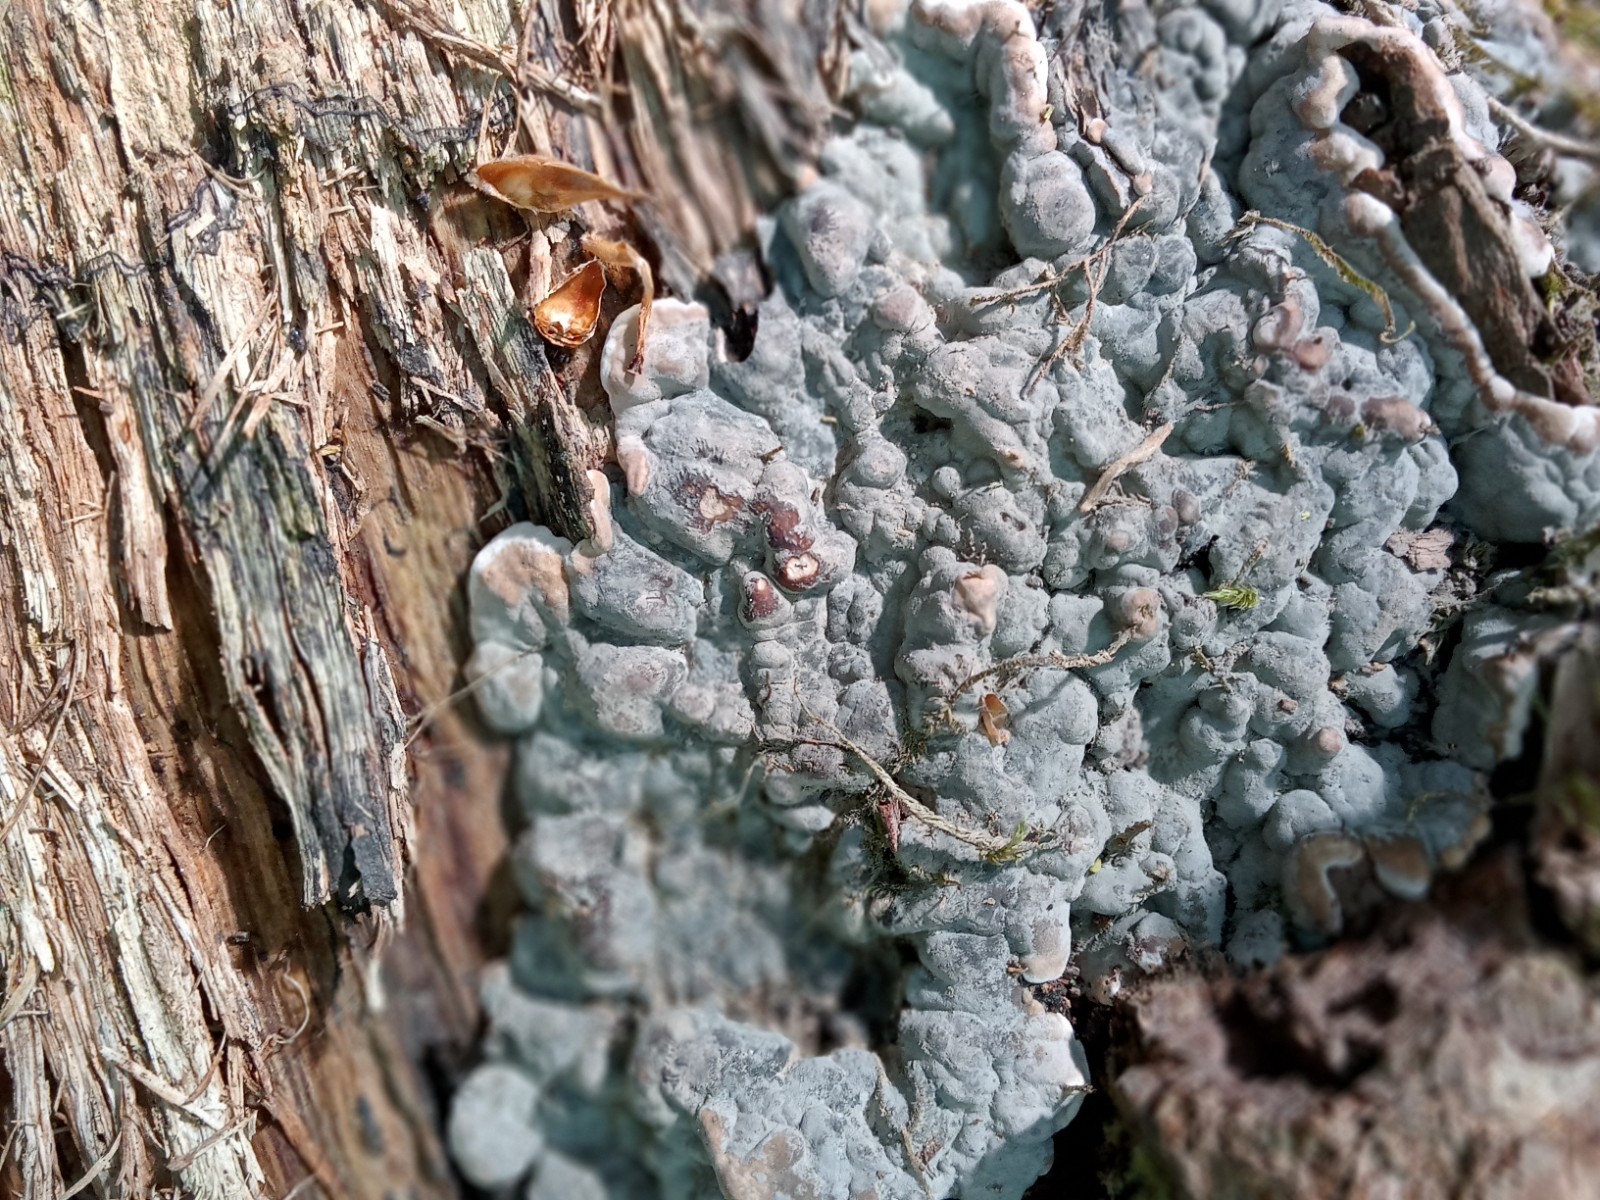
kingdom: Fungi
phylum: Ascomycota
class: Sordariomycetes
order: Xylariales
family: Xylariaceae
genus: Kretzschmaria
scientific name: Kretzschmaria deusta
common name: stor kulsvamp
